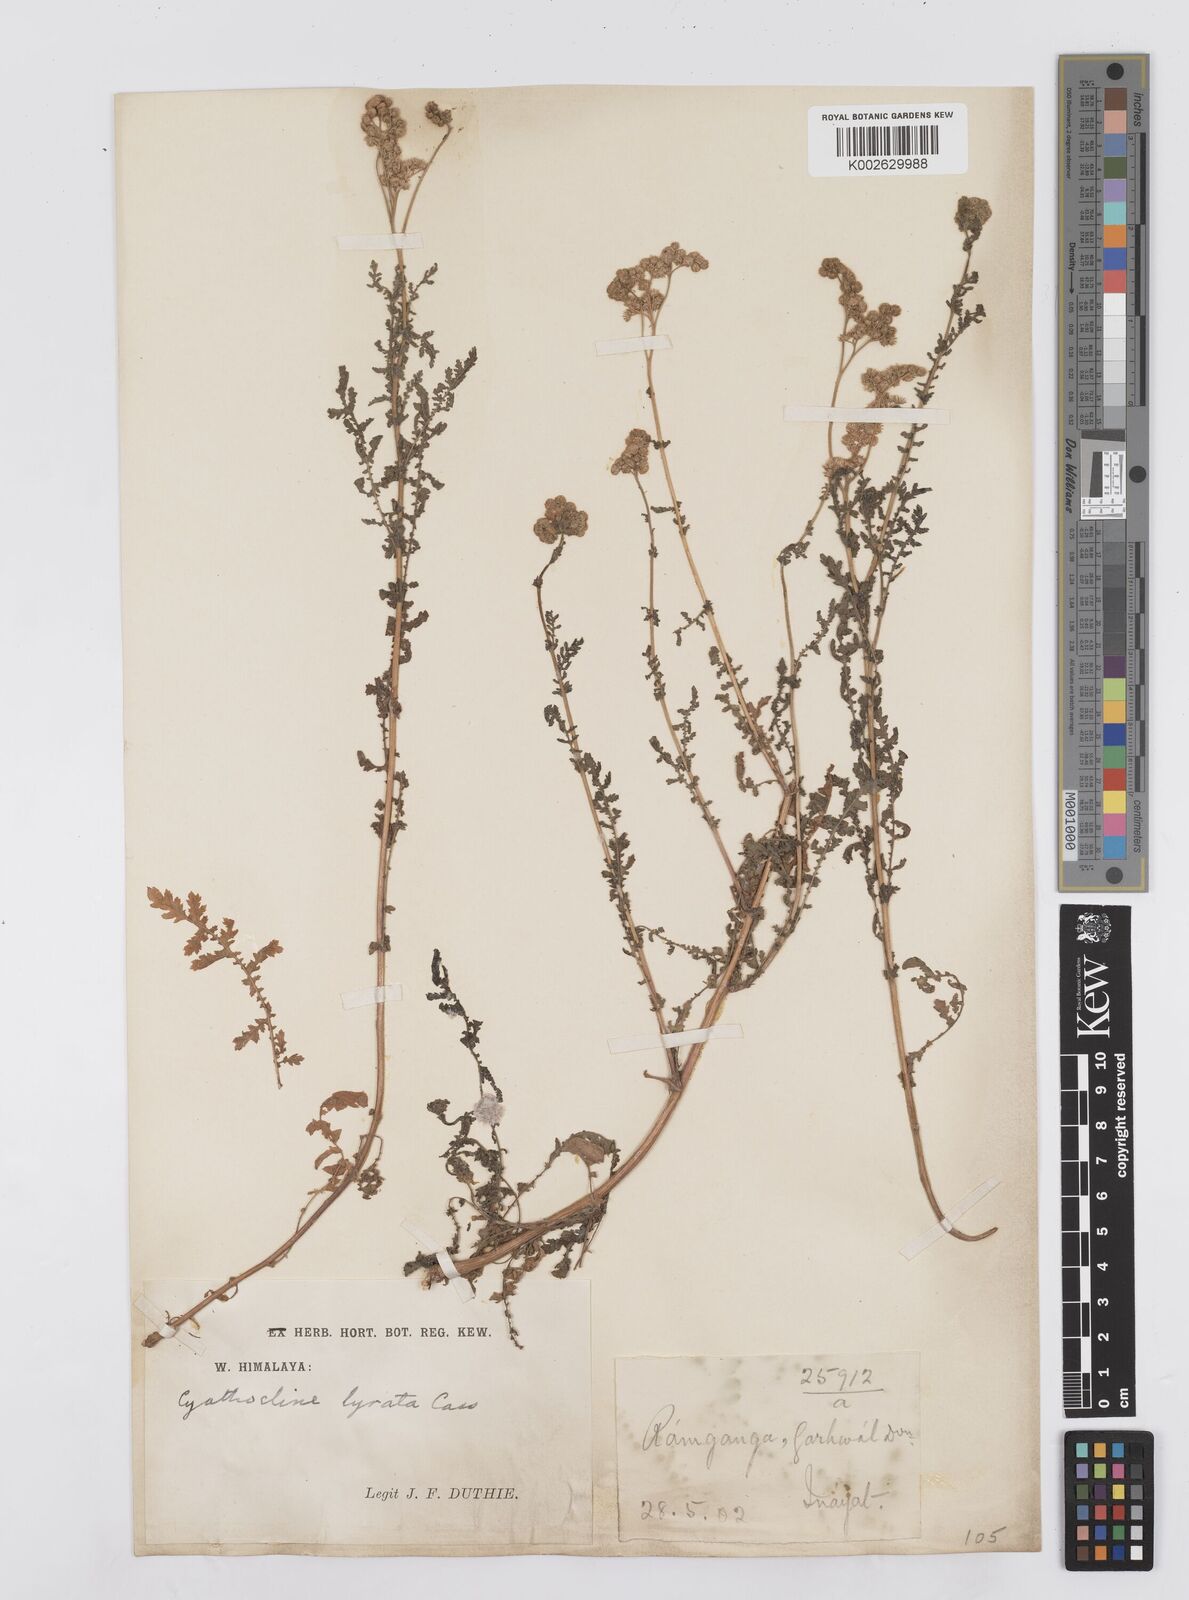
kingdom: Plantae
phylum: Tracheophyta
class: Magnoliopsida
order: Asterales
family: Asteraceae
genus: Cyathocline
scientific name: Cyathocline purpurea
